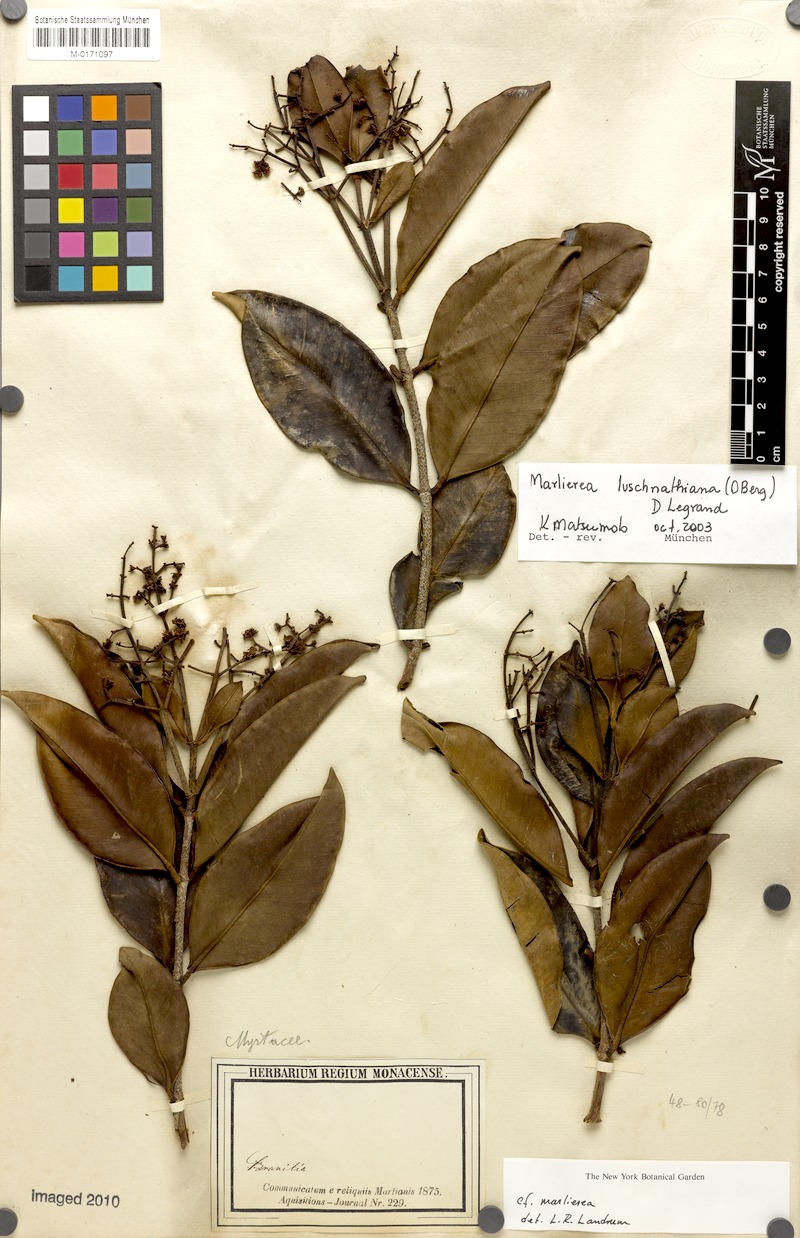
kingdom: Plantae
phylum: Tracheophyta
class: Magnoliopsida
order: Myrtales
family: Myrtaceae
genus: Myrcia
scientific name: Myrcia maculata
